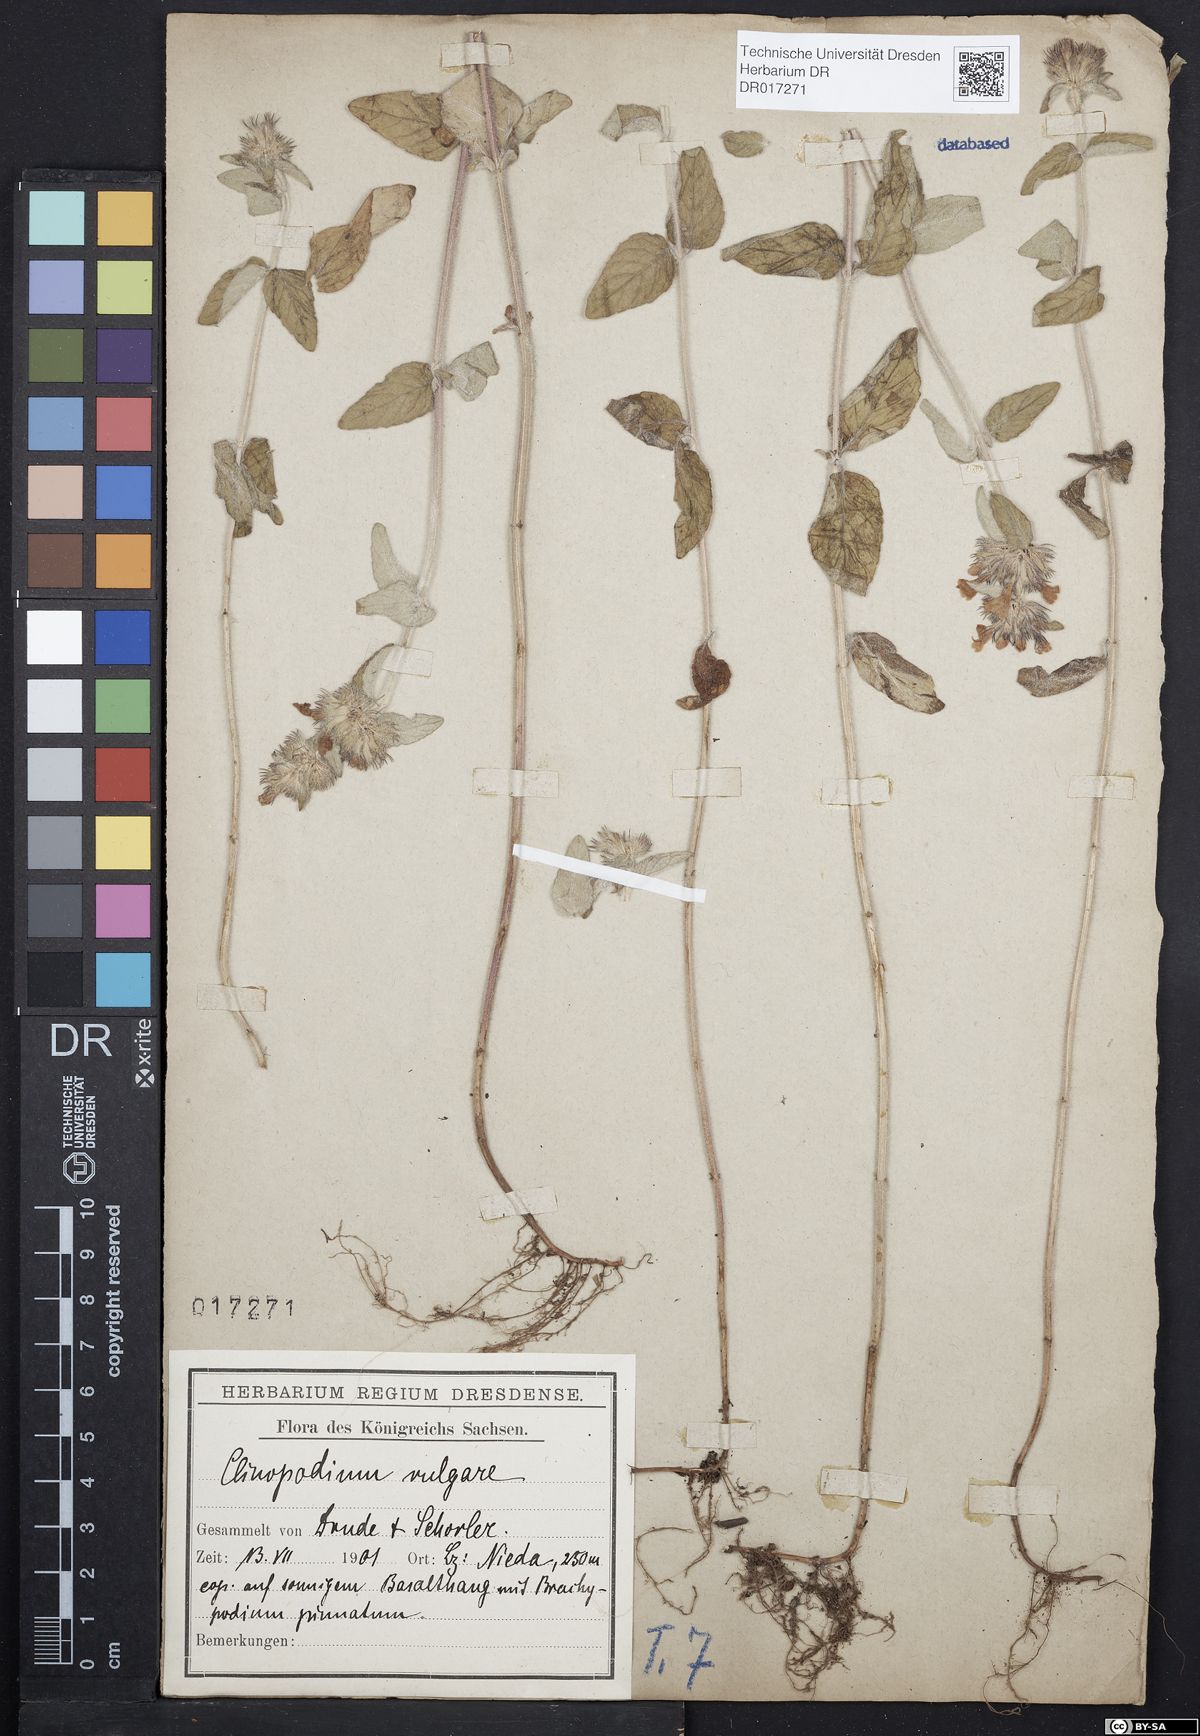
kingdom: Plantae
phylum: Tracheophyta
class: Magnoliopsida
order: Lamiales
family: Lamiaceae
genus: Clinopodium
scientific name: Clinopodium vulgare
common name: Wild basil
